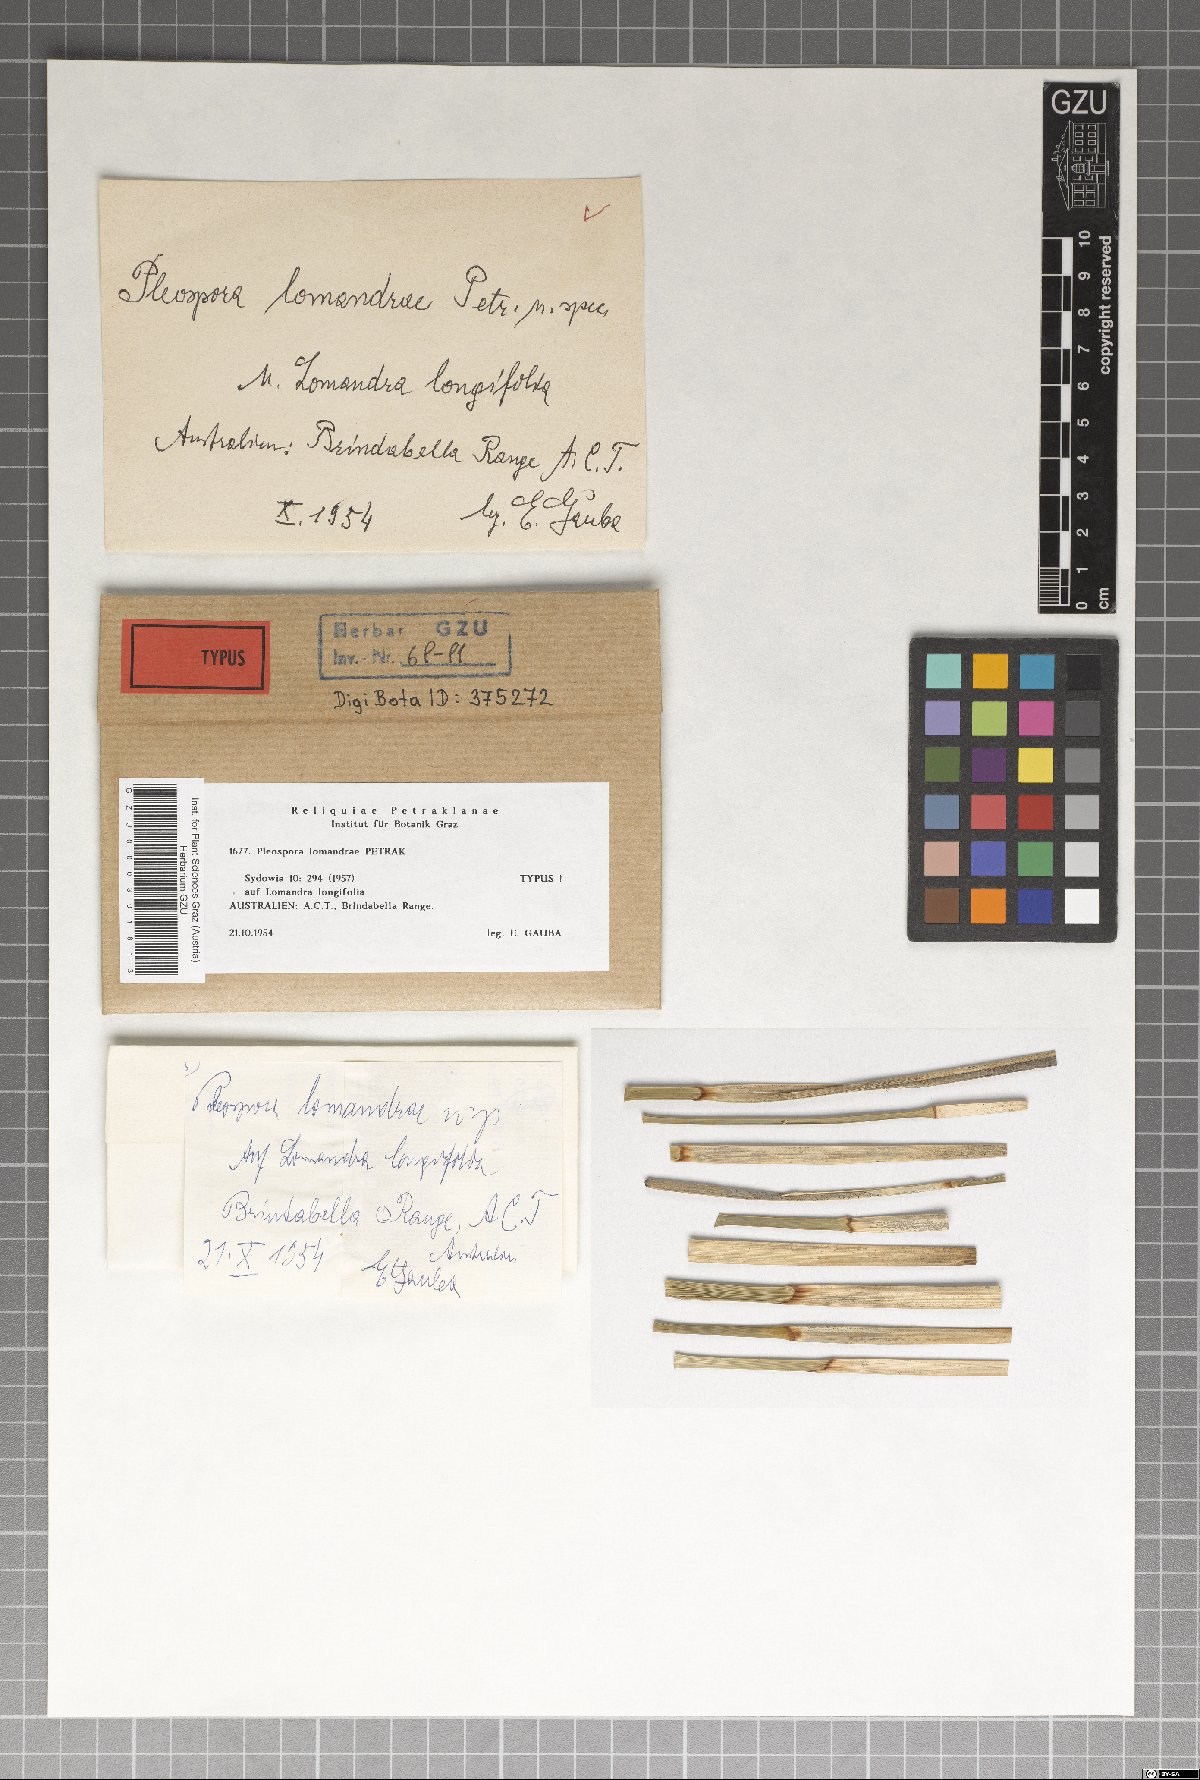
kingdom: Fungi
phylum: Ascomycota
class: Dothideomycetes
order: Pleosporales
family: Pleosporaceae
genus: Pleospora
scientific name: Pleospora lomandrae
